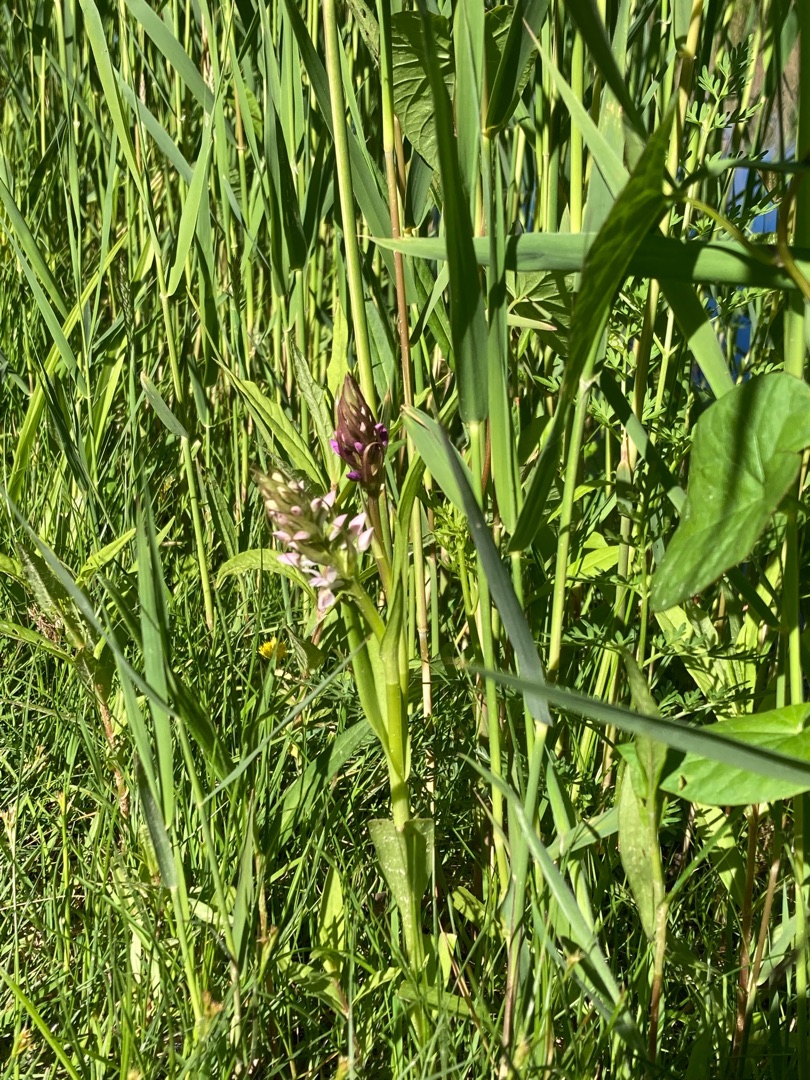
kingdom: Plantae
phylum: Tracheophyta
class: Liliopsida
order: Asparagales
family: Orchidaceae
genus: Dactylorhiza
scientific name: Dactylorhiza incarnata
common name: Kødfarvet gøgeurt
